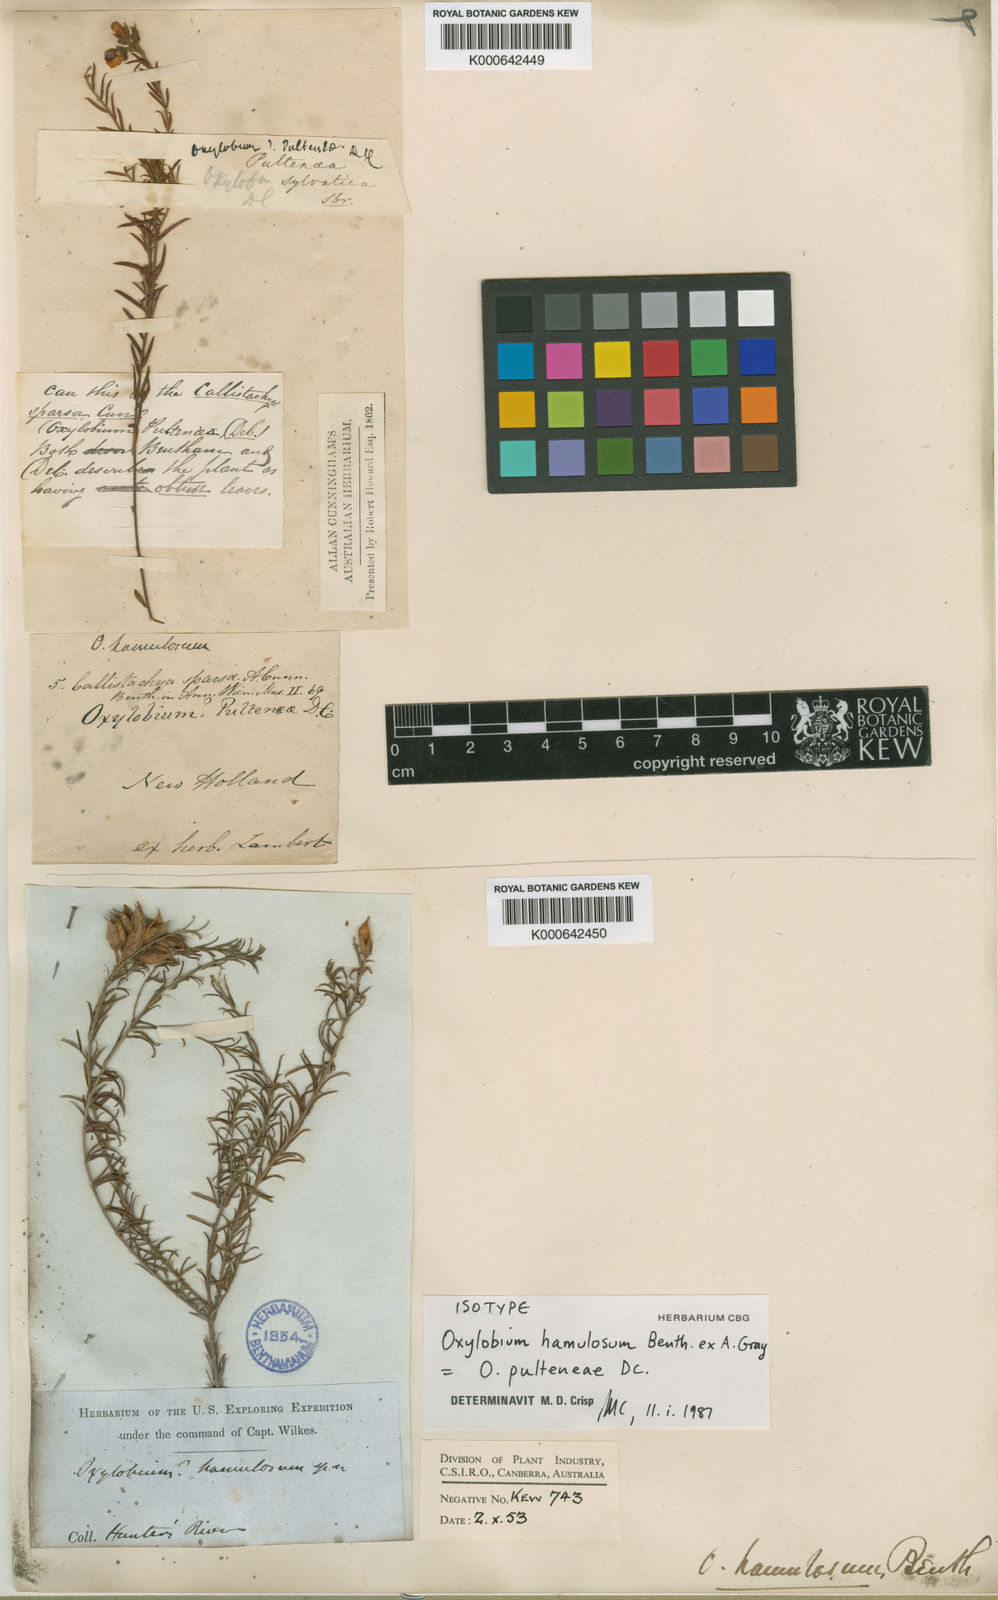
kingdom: Plantae
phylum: Tracheophyta
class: Magnoliopsida
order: Fabales
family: Fabaceae
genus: Oxylobium
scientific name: Oxylobium pulteneae
